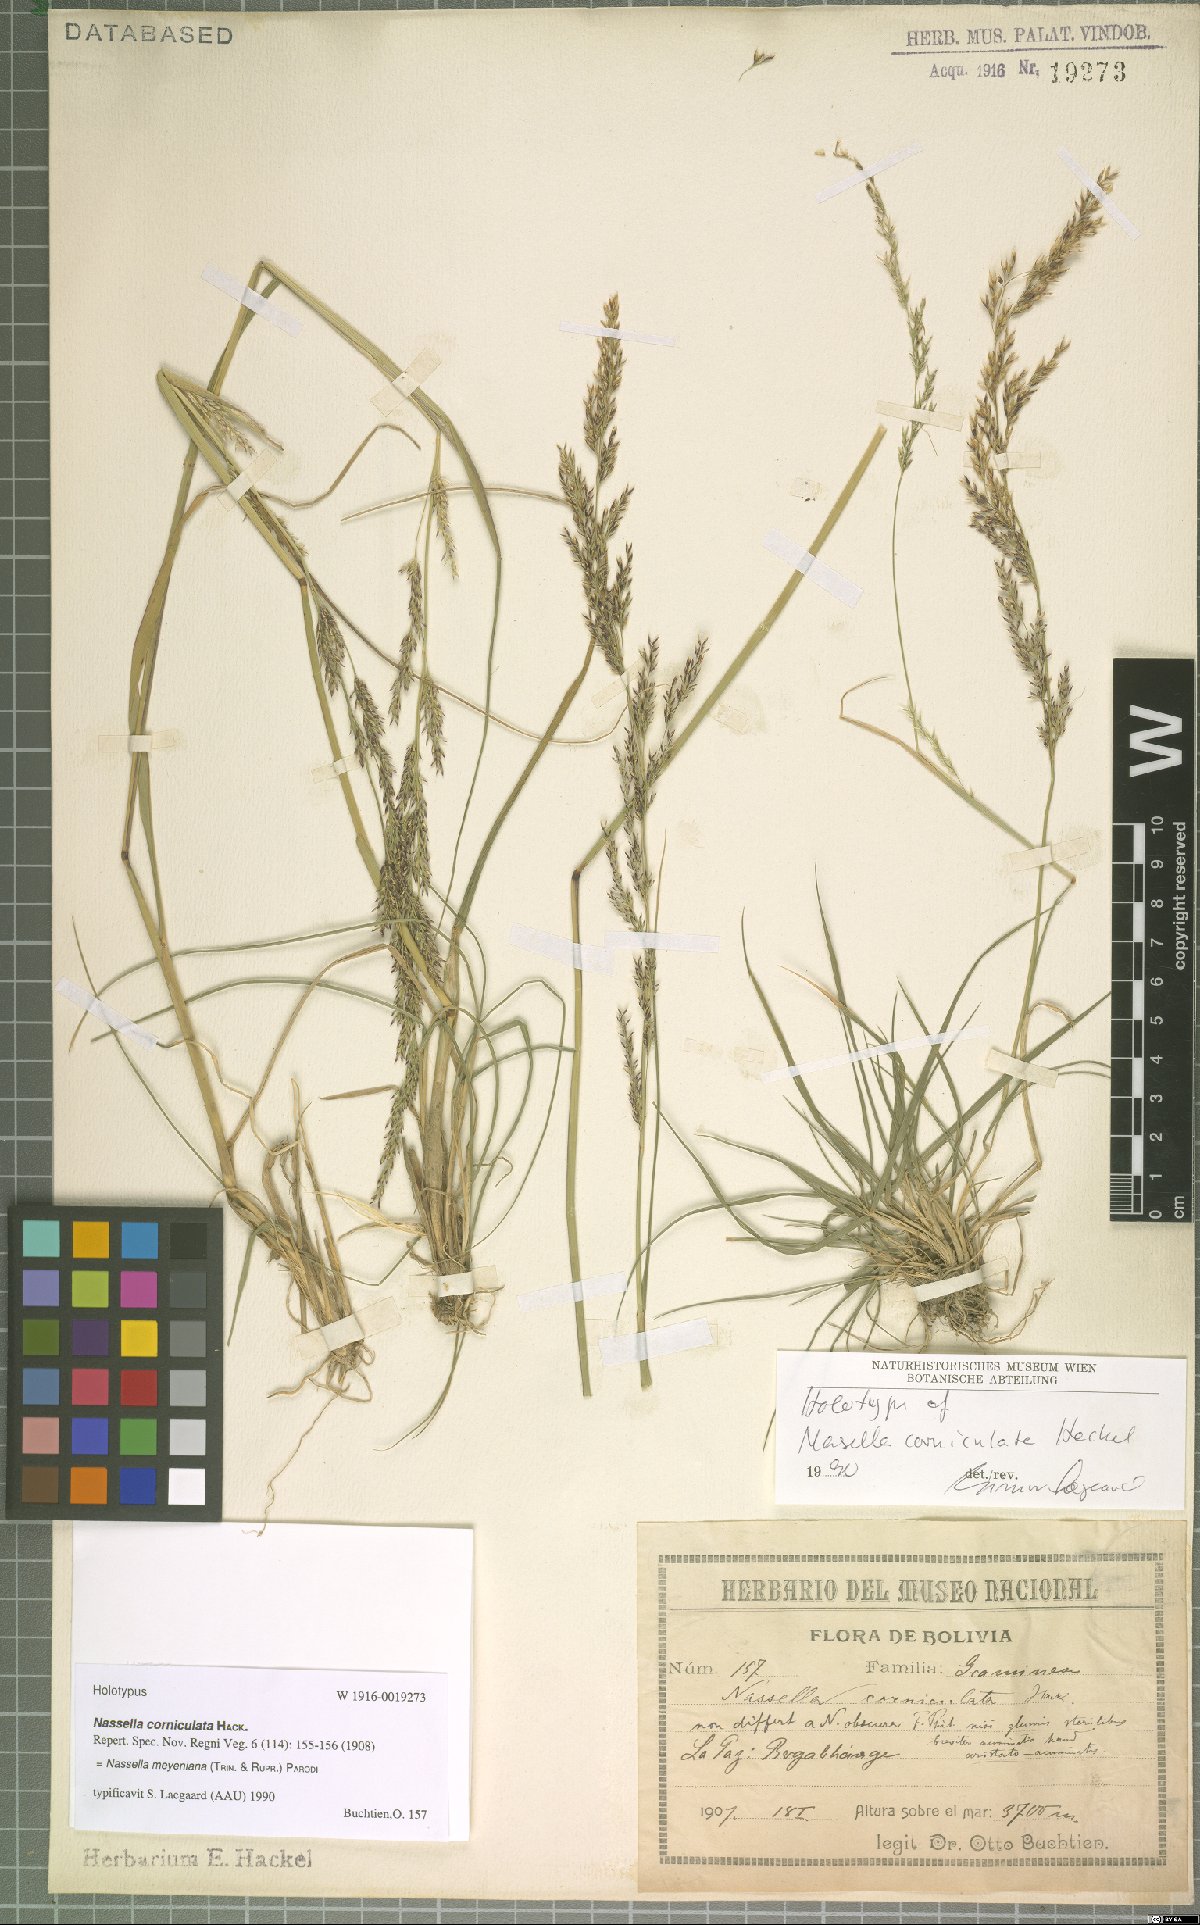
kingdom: Plantae
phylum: Tracheophyta
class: Liliopsida
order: Poales
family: Poaceae
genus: Nassella
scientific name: Nassella meyeniana
